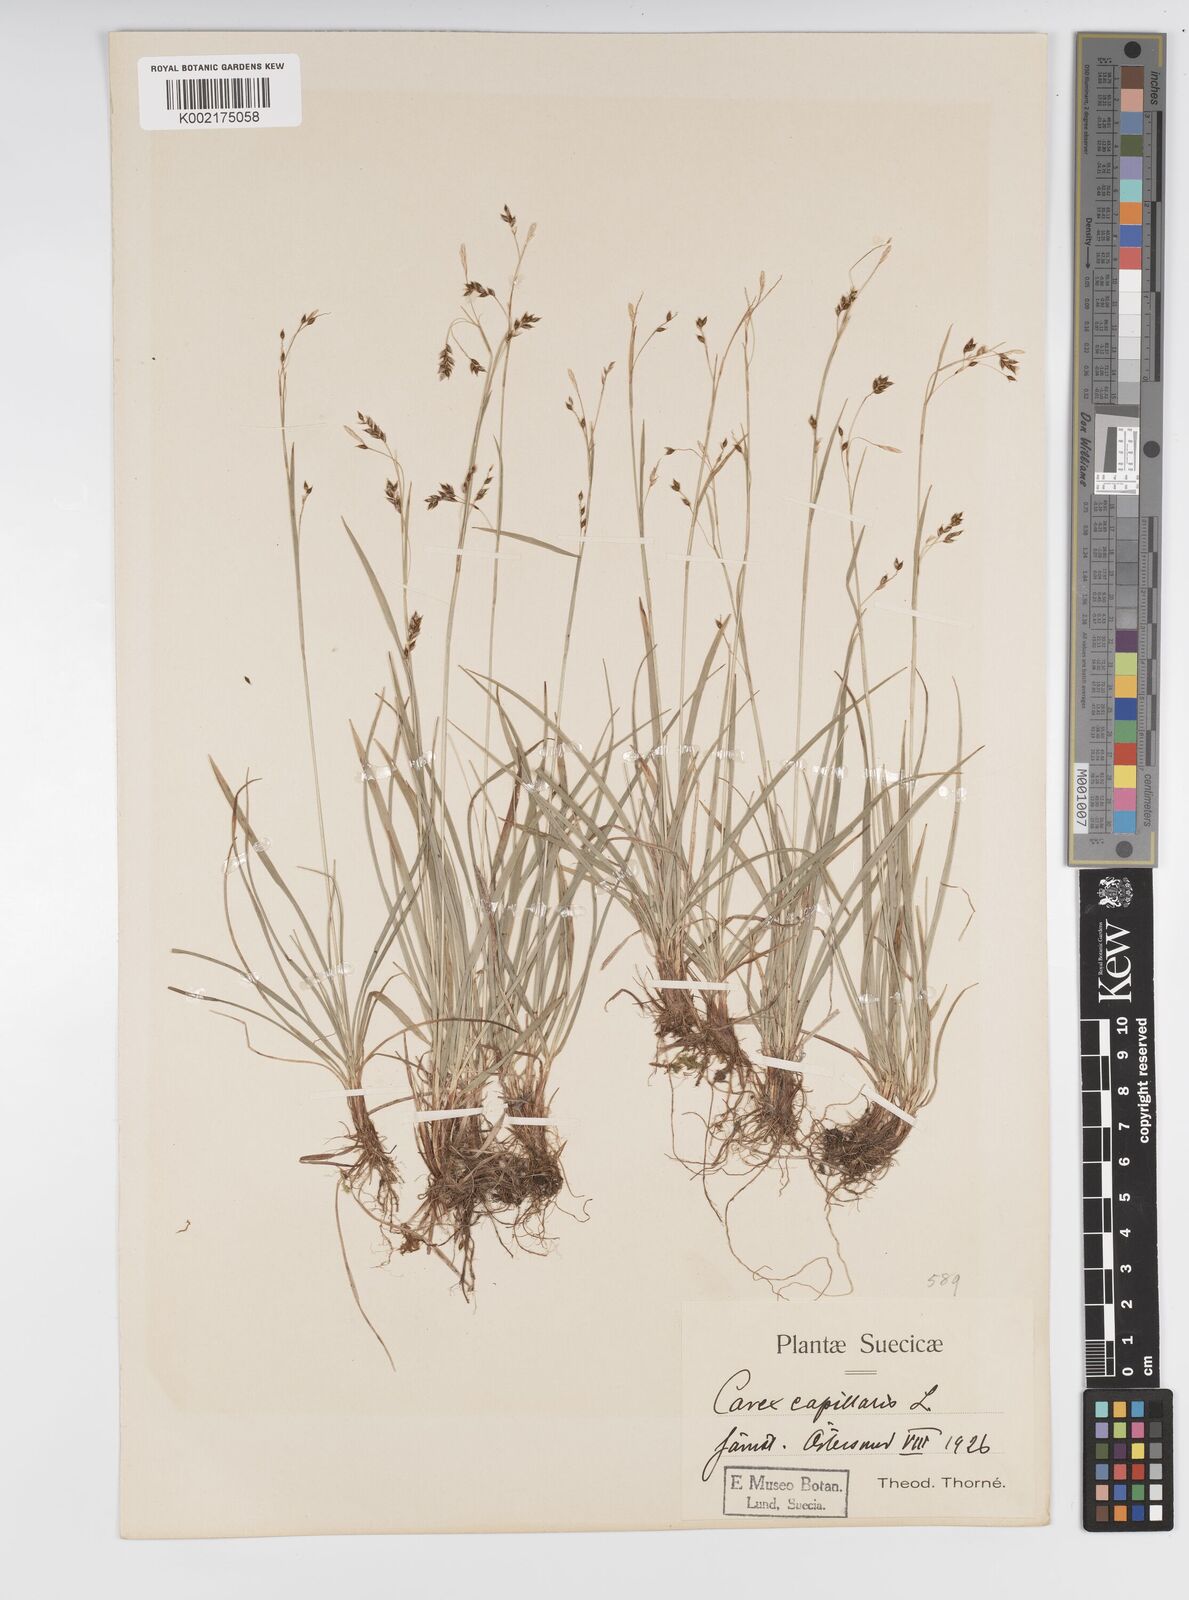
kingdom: Plantae
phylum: Tracheophyta
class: Liliopsida
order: Poales
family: Cyperaceae
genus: Carex
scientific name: Carex capillaris
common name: Hair sedge
